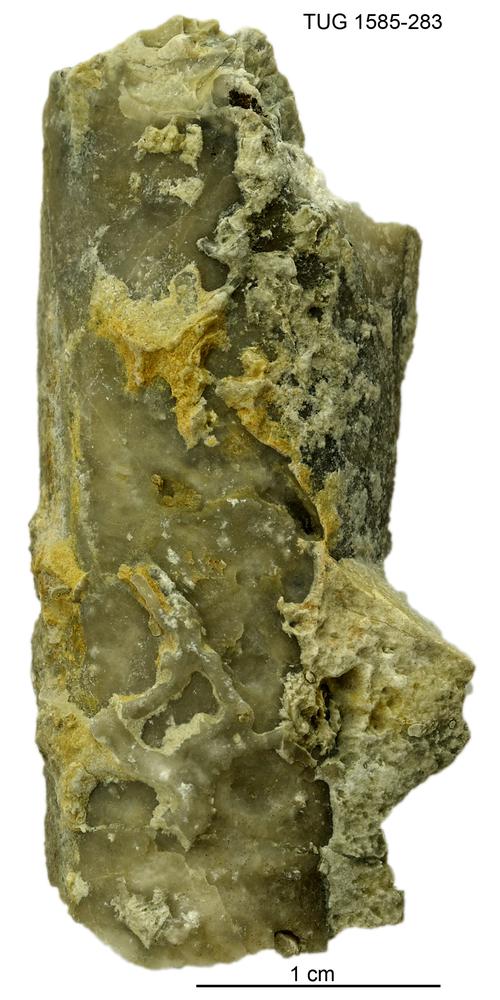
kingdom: Animalia
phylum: Mollusca
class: Cephalopoda
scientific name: Cephalopoda
